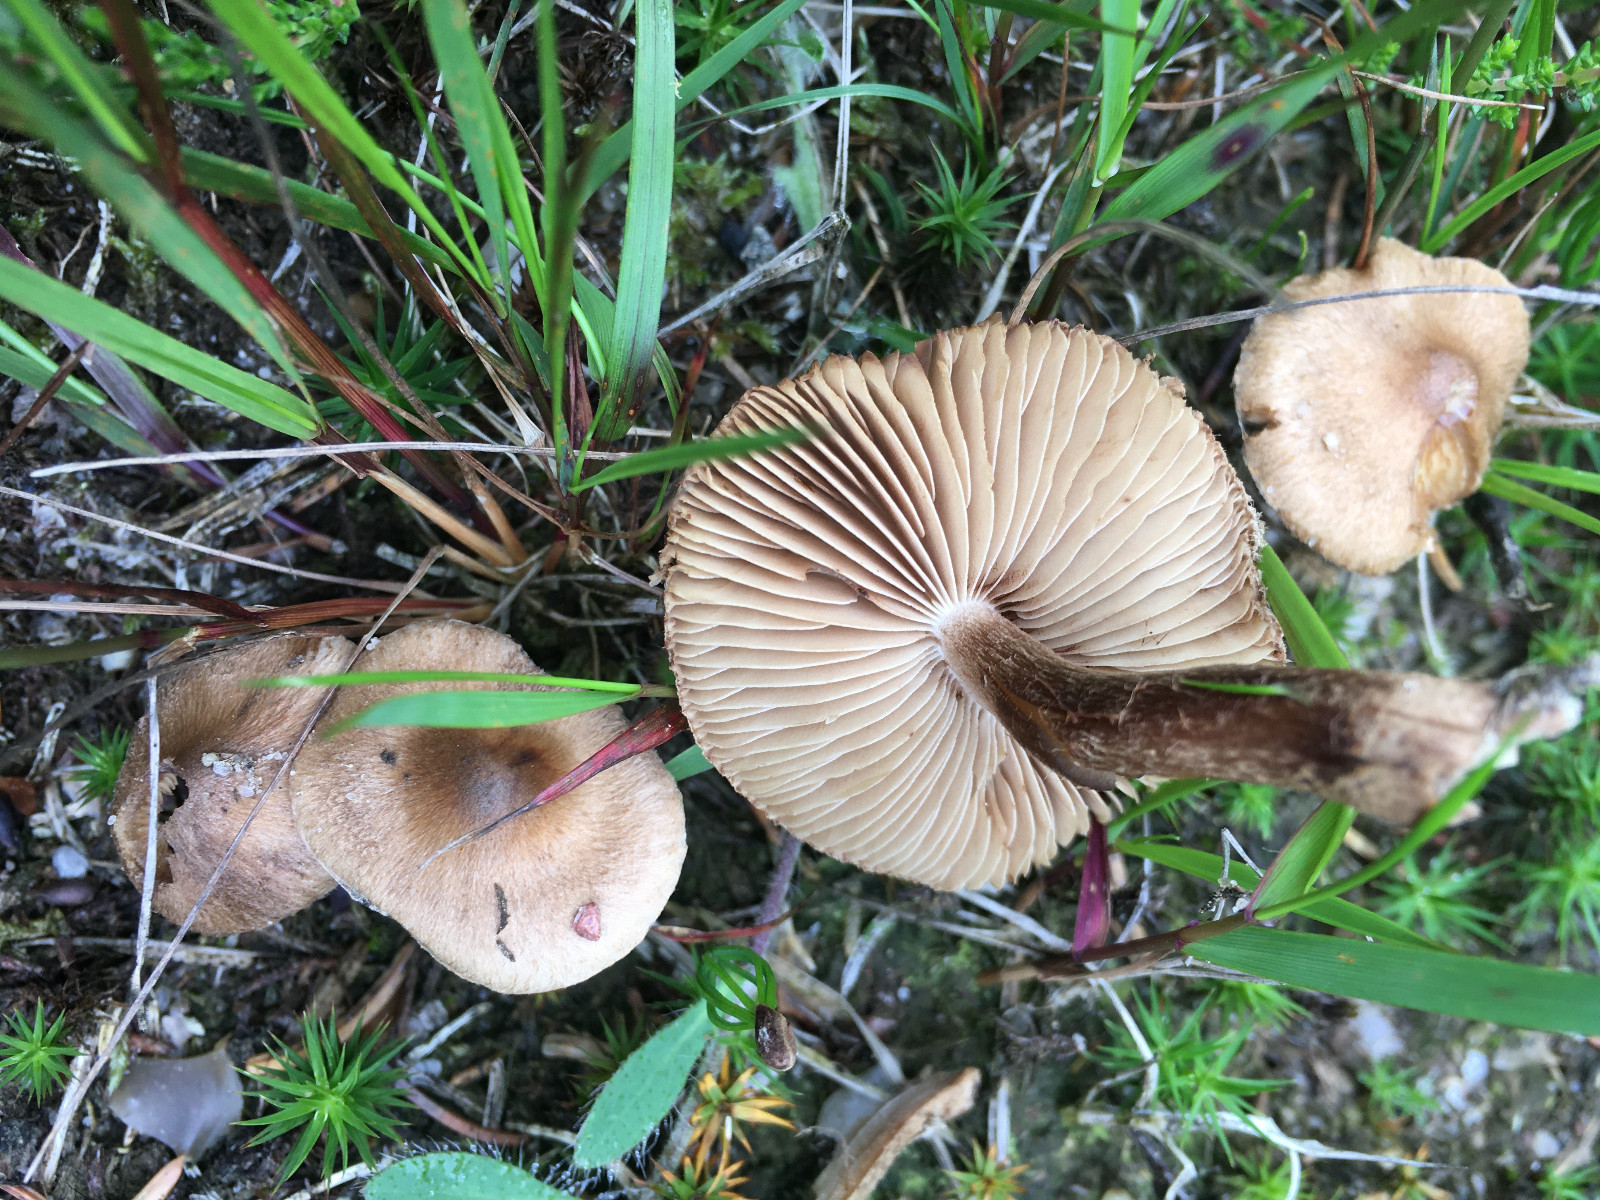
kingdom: Fungi
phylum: Basidiomycota
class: Agaricomycetes
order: Agaricales
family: Inocybaceae
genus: Inocybe
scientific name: Inocybe
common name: trævlhat
